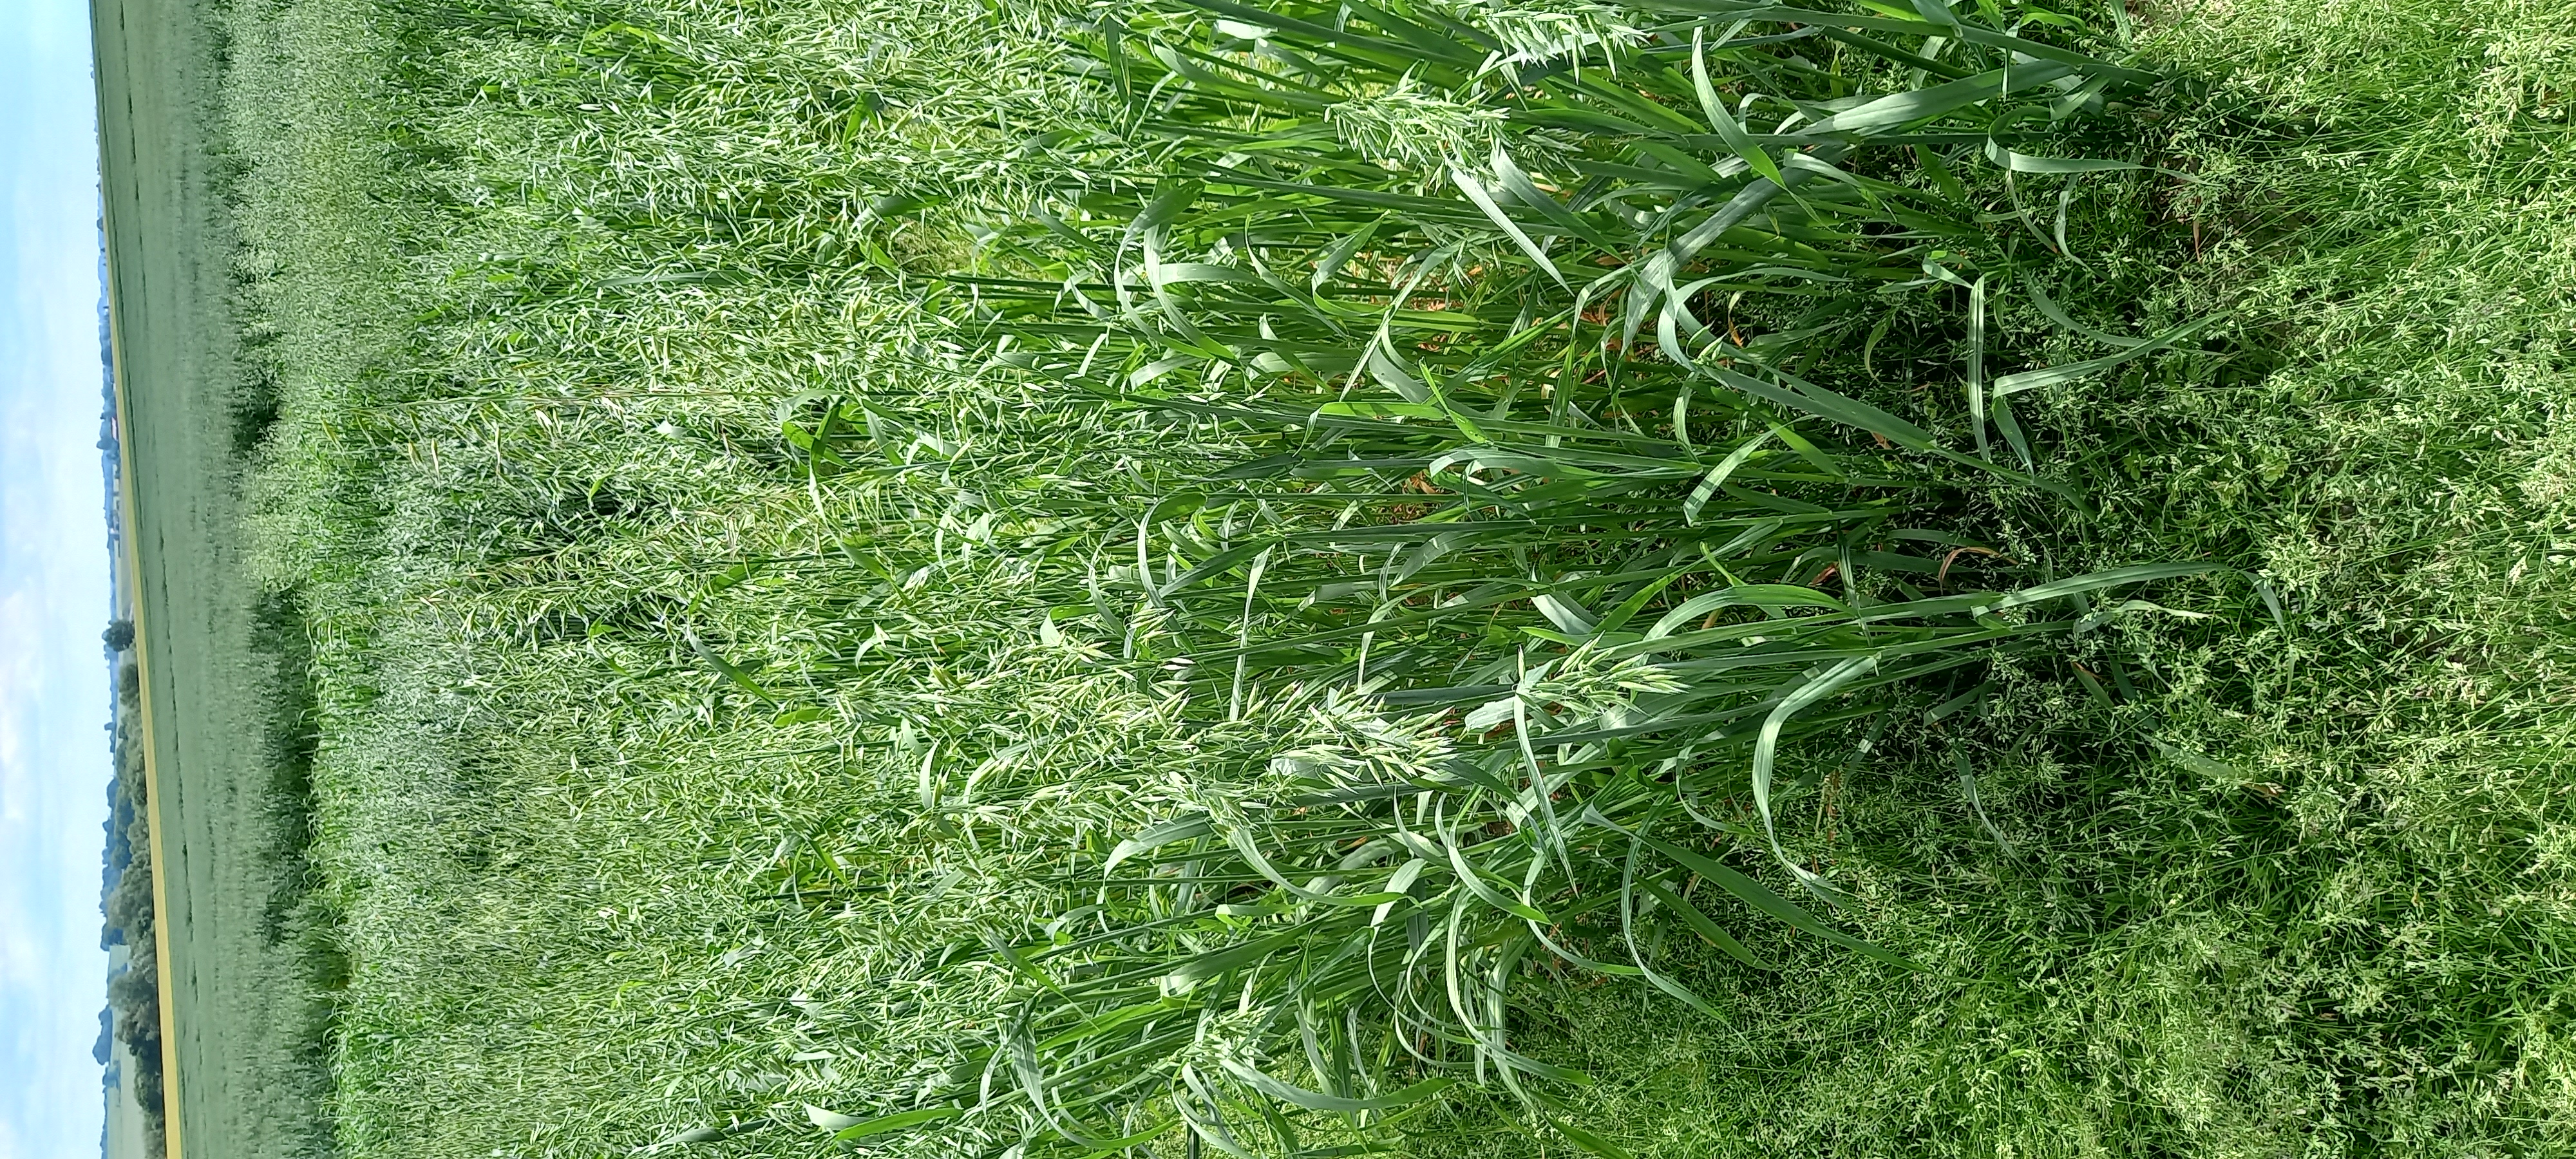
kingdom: Plantae
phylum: Tracheophyta
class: Liliopsida
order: Poales
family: Poaceae
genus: Avena
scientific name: Avena sativa
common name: Oat
